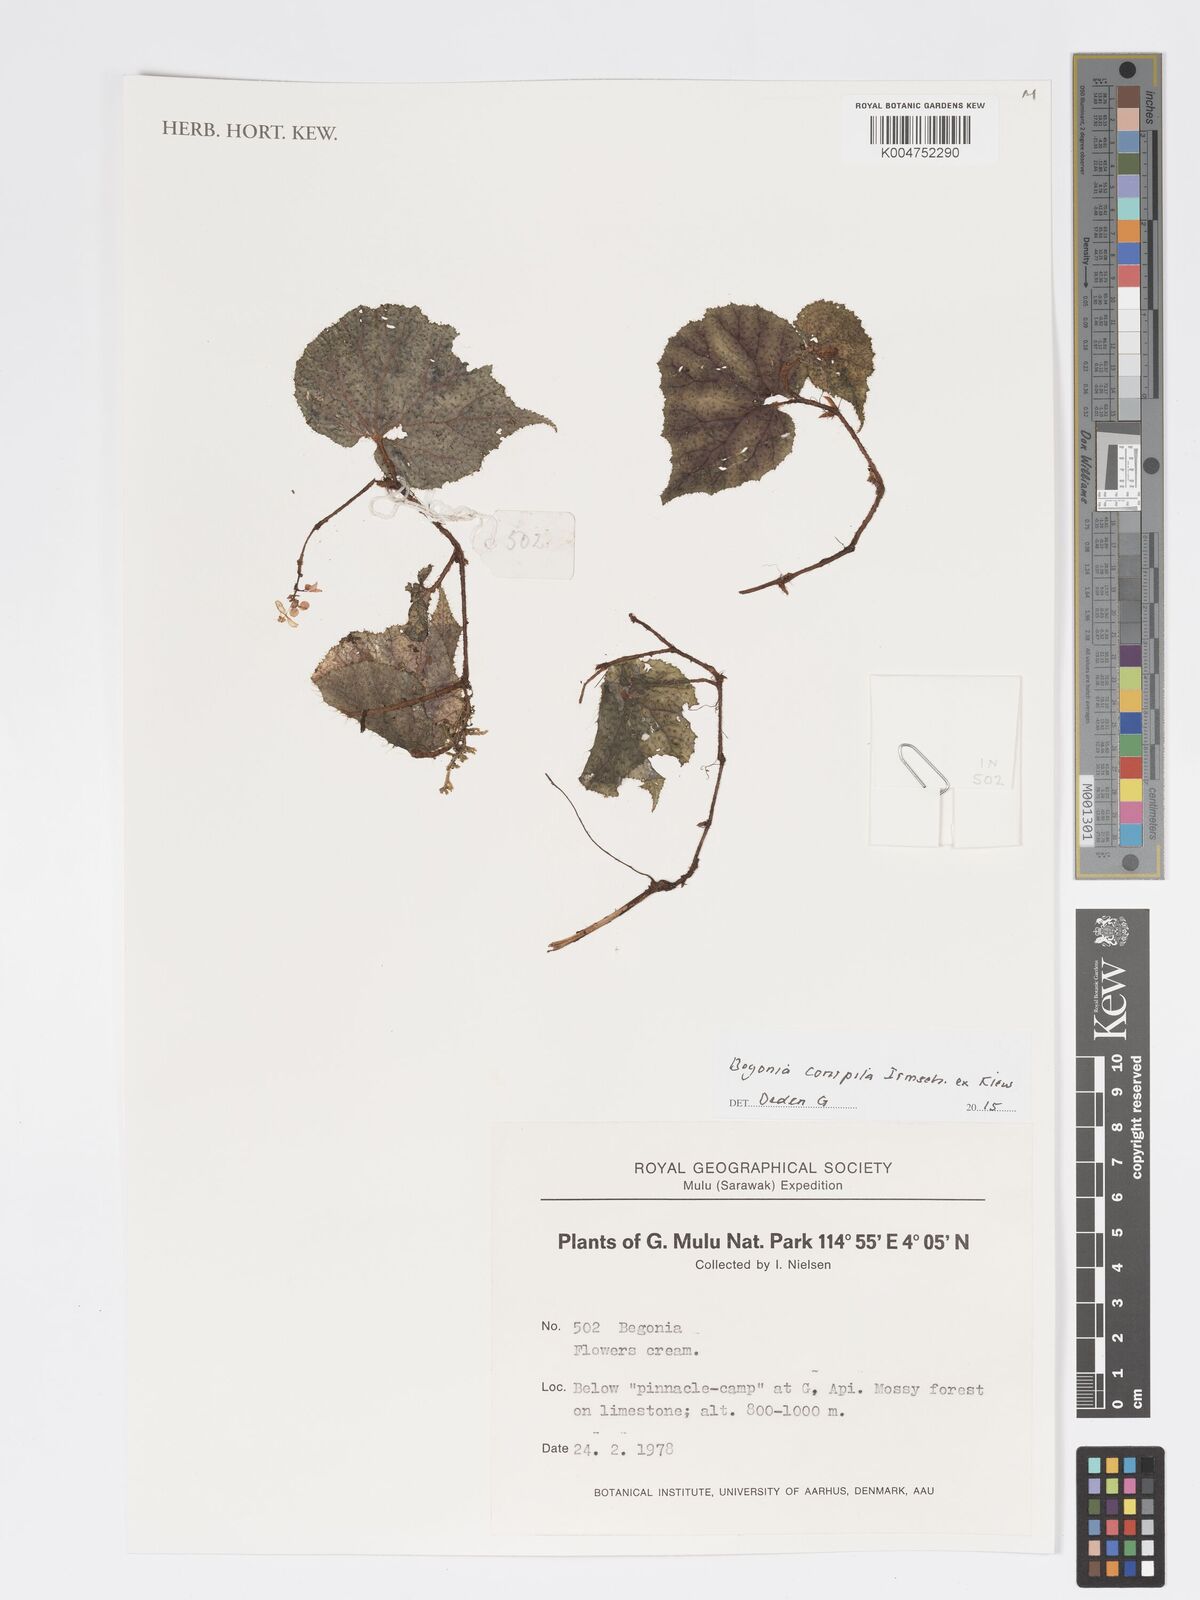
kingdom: Plantae
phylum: Tracheophyta
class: Magnoliopsida
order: Cucurbitales
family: Begoniaceae
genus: Begonia
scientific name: Begonia conipila
